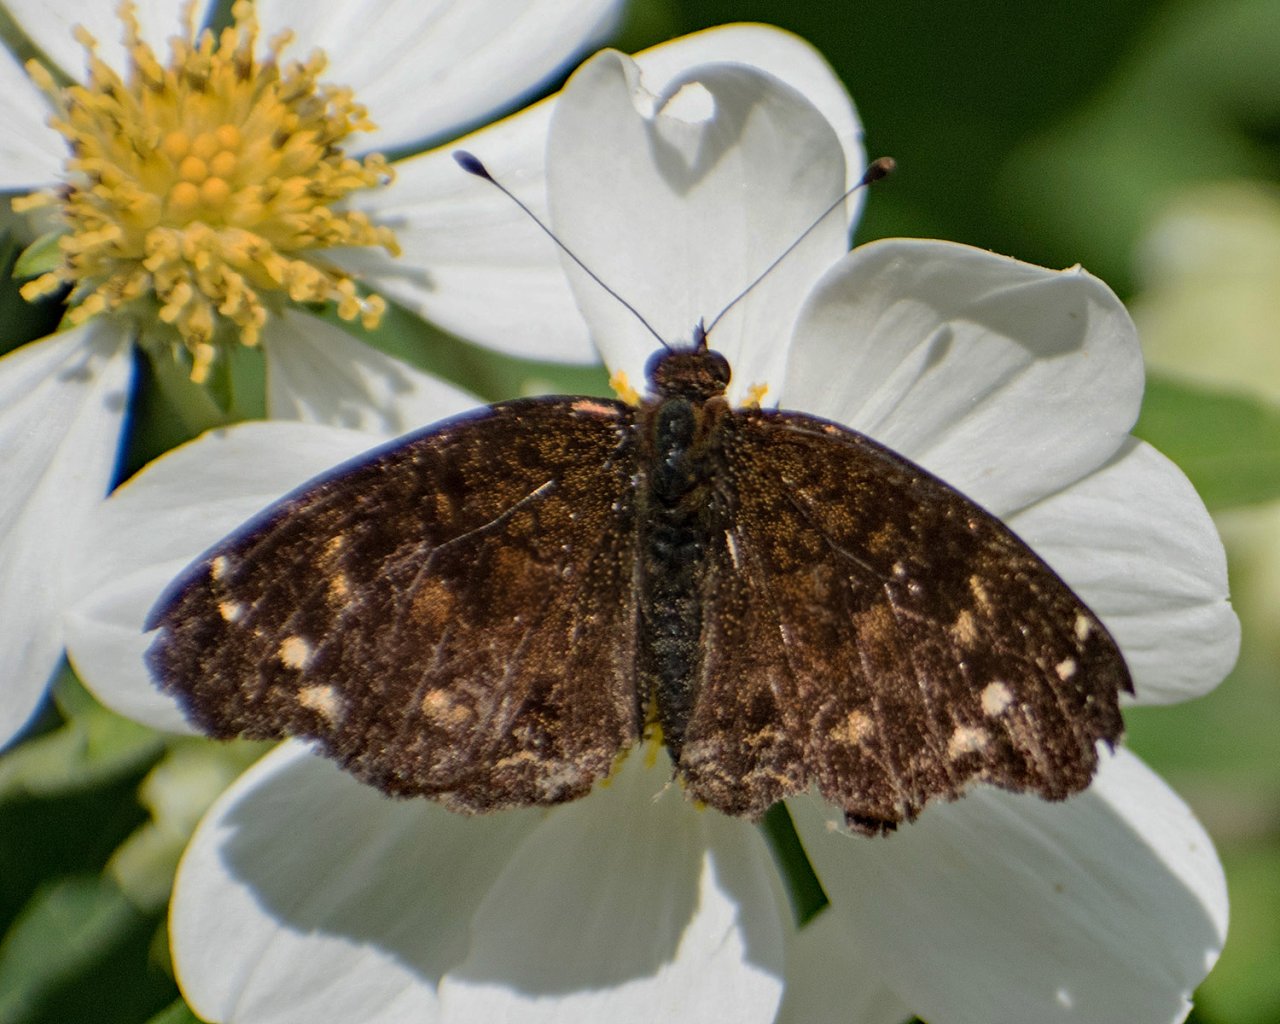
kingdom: Animalia
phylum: Arthropoda
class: Insecta
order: Lepidoptera
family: Nymphalidae
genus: Anthanassa
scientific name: Anthanassa atronia
